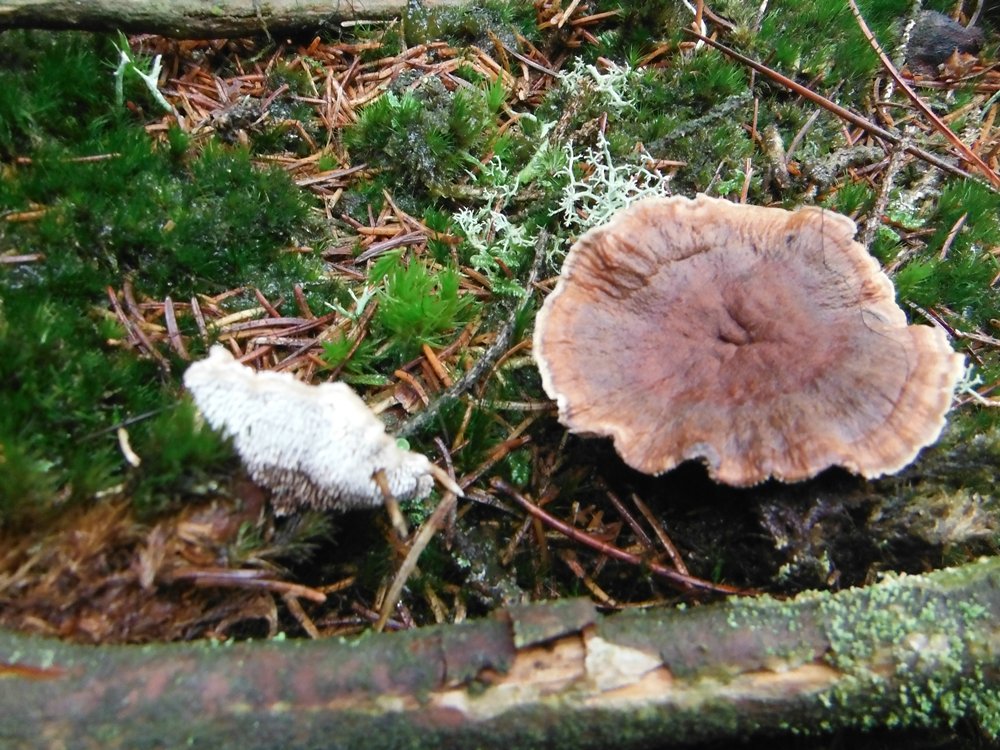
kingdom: Fungi
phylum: Basidiomycota
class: Agaricomycetes
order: Thelephorales
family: Bankeraceae
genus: Hydnellum
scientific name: Hydnellum aurantiacum
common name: orange korkpigsvamp
